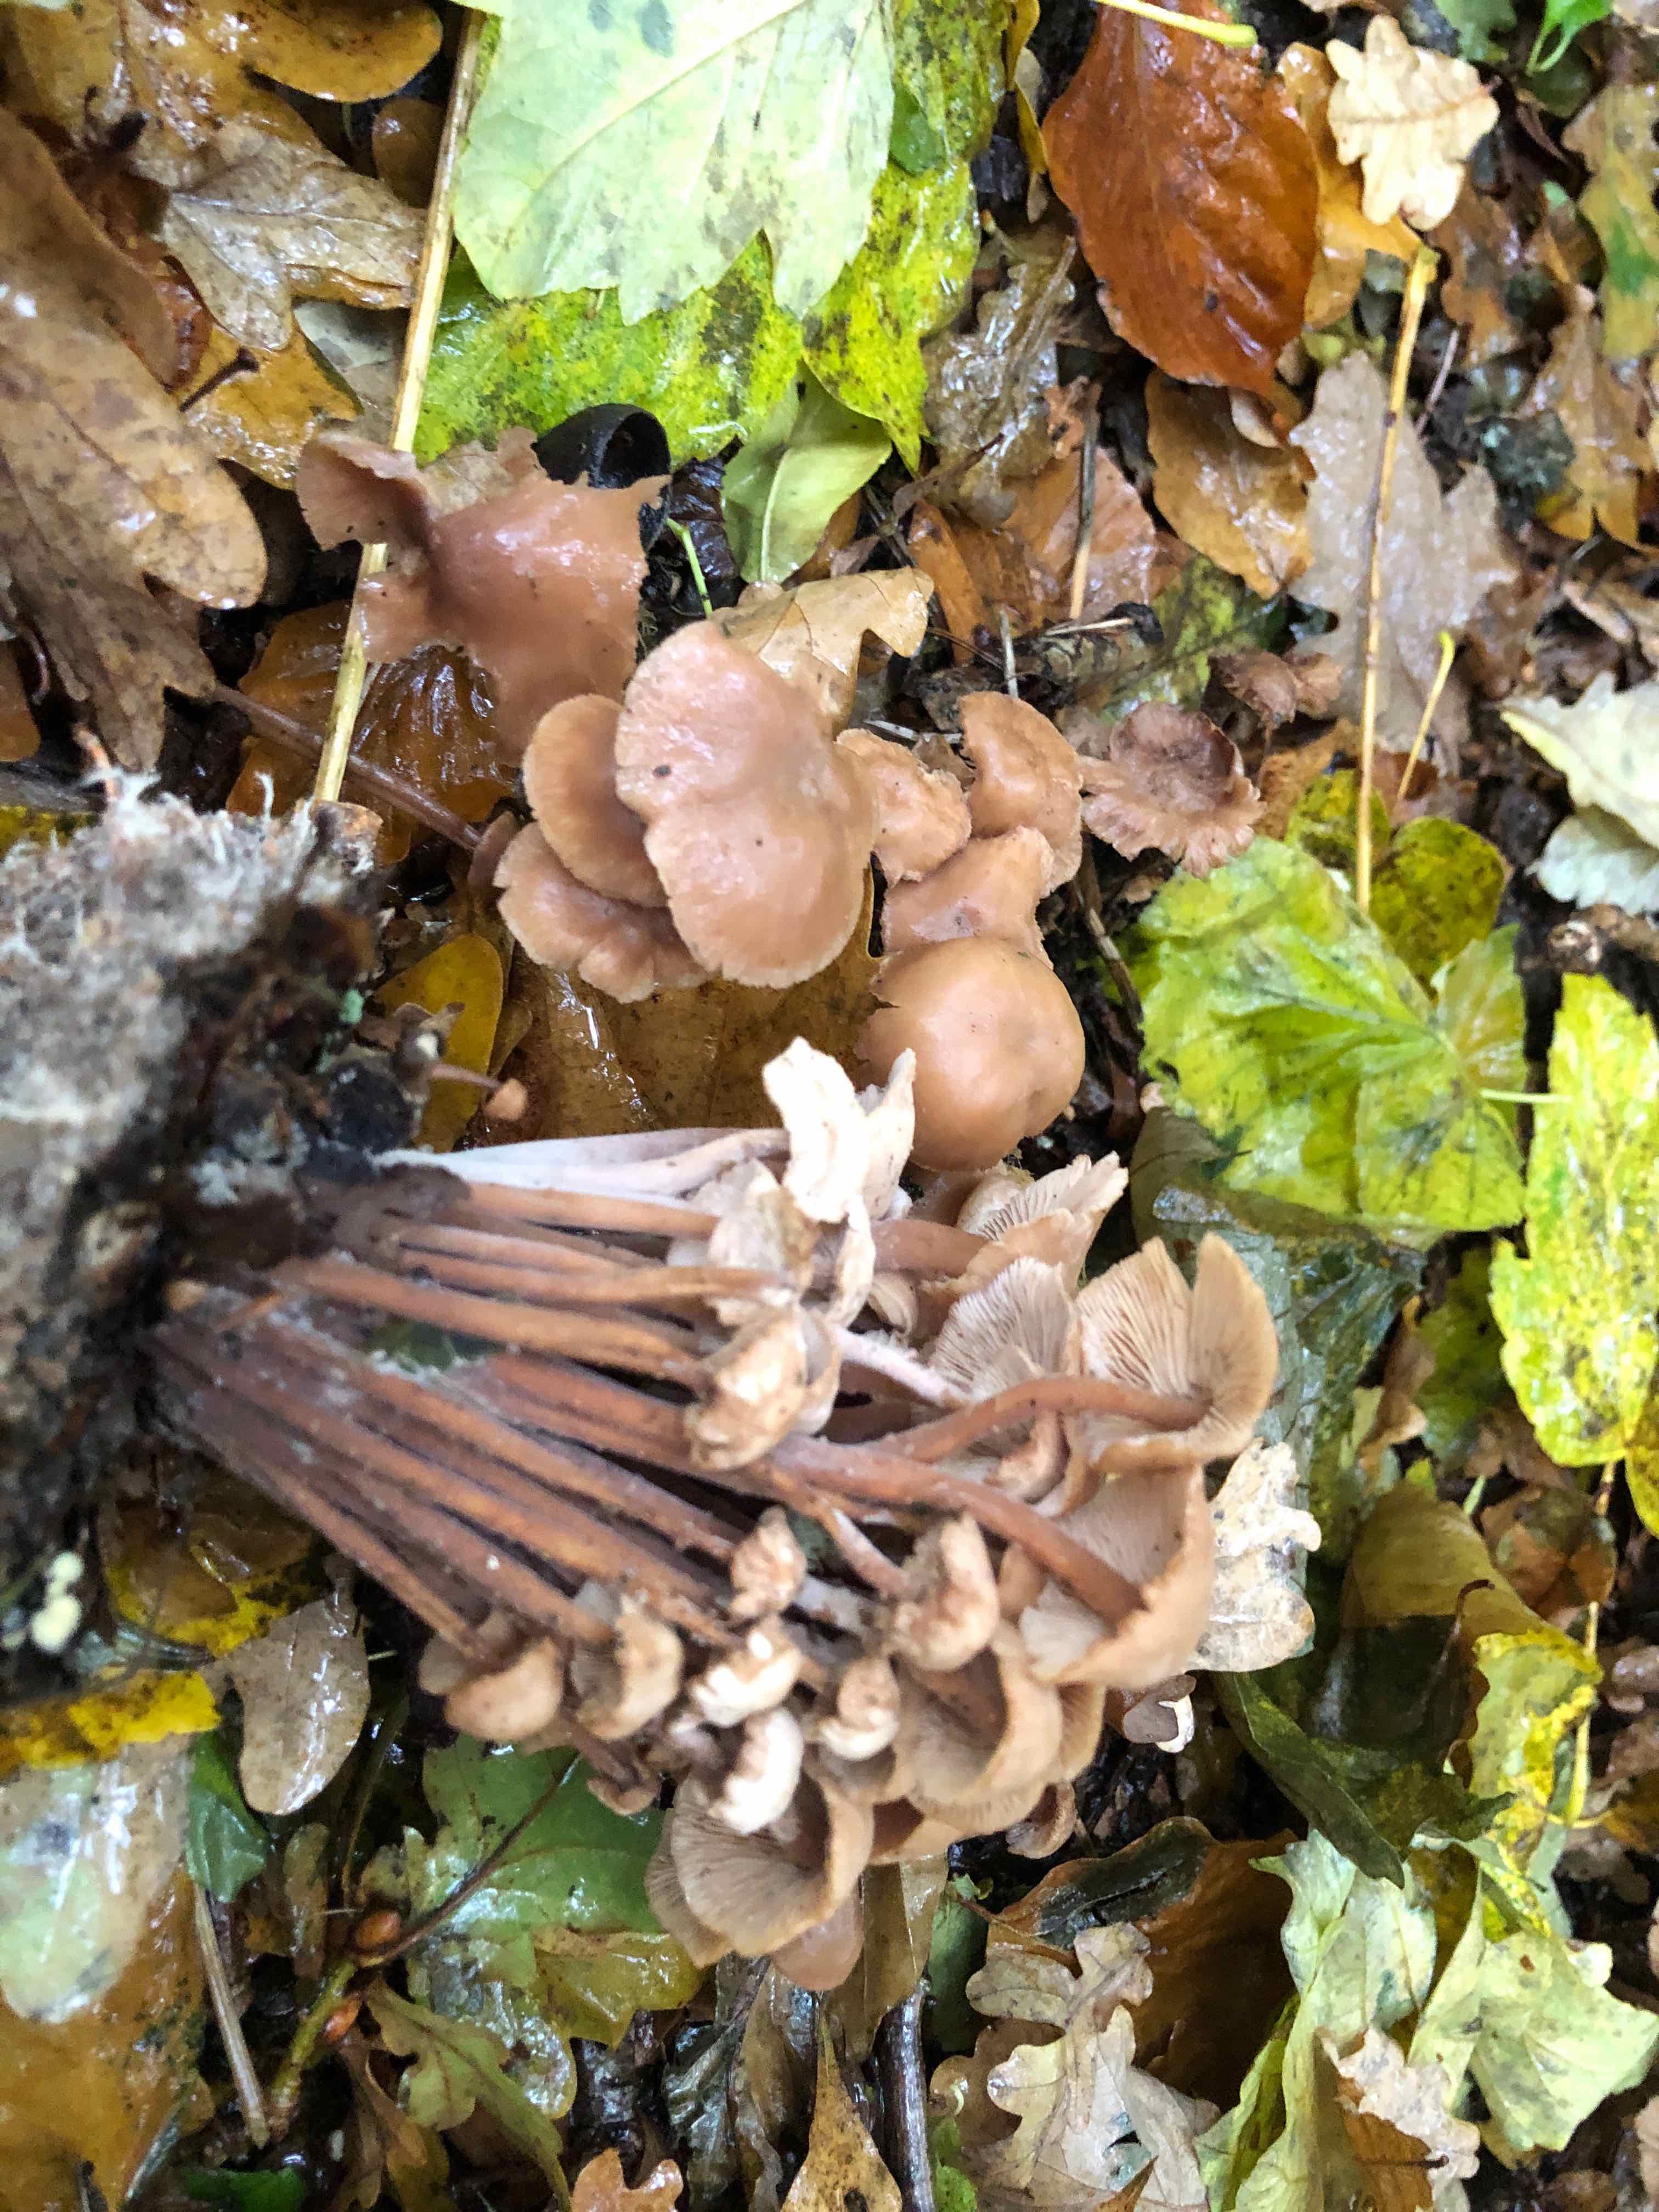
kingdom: Fungi
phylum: Basidiomycota
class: Agaricomycetes
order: Agaricales
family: Omphalotaceae
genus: Collybiopsis
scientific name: Collybiopsis confluens
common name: knippe-fladhat
